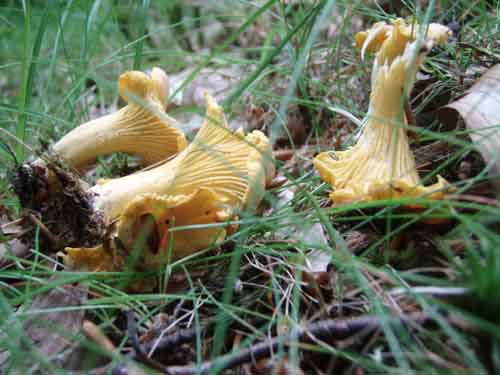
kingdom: Fungi
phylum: Basidiomycota
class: Agaricomycetes
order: Cantharellales
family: Hydnaceae
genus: Cantharellus
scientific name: Cantharellus cibarius
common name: almindelig kantarel
